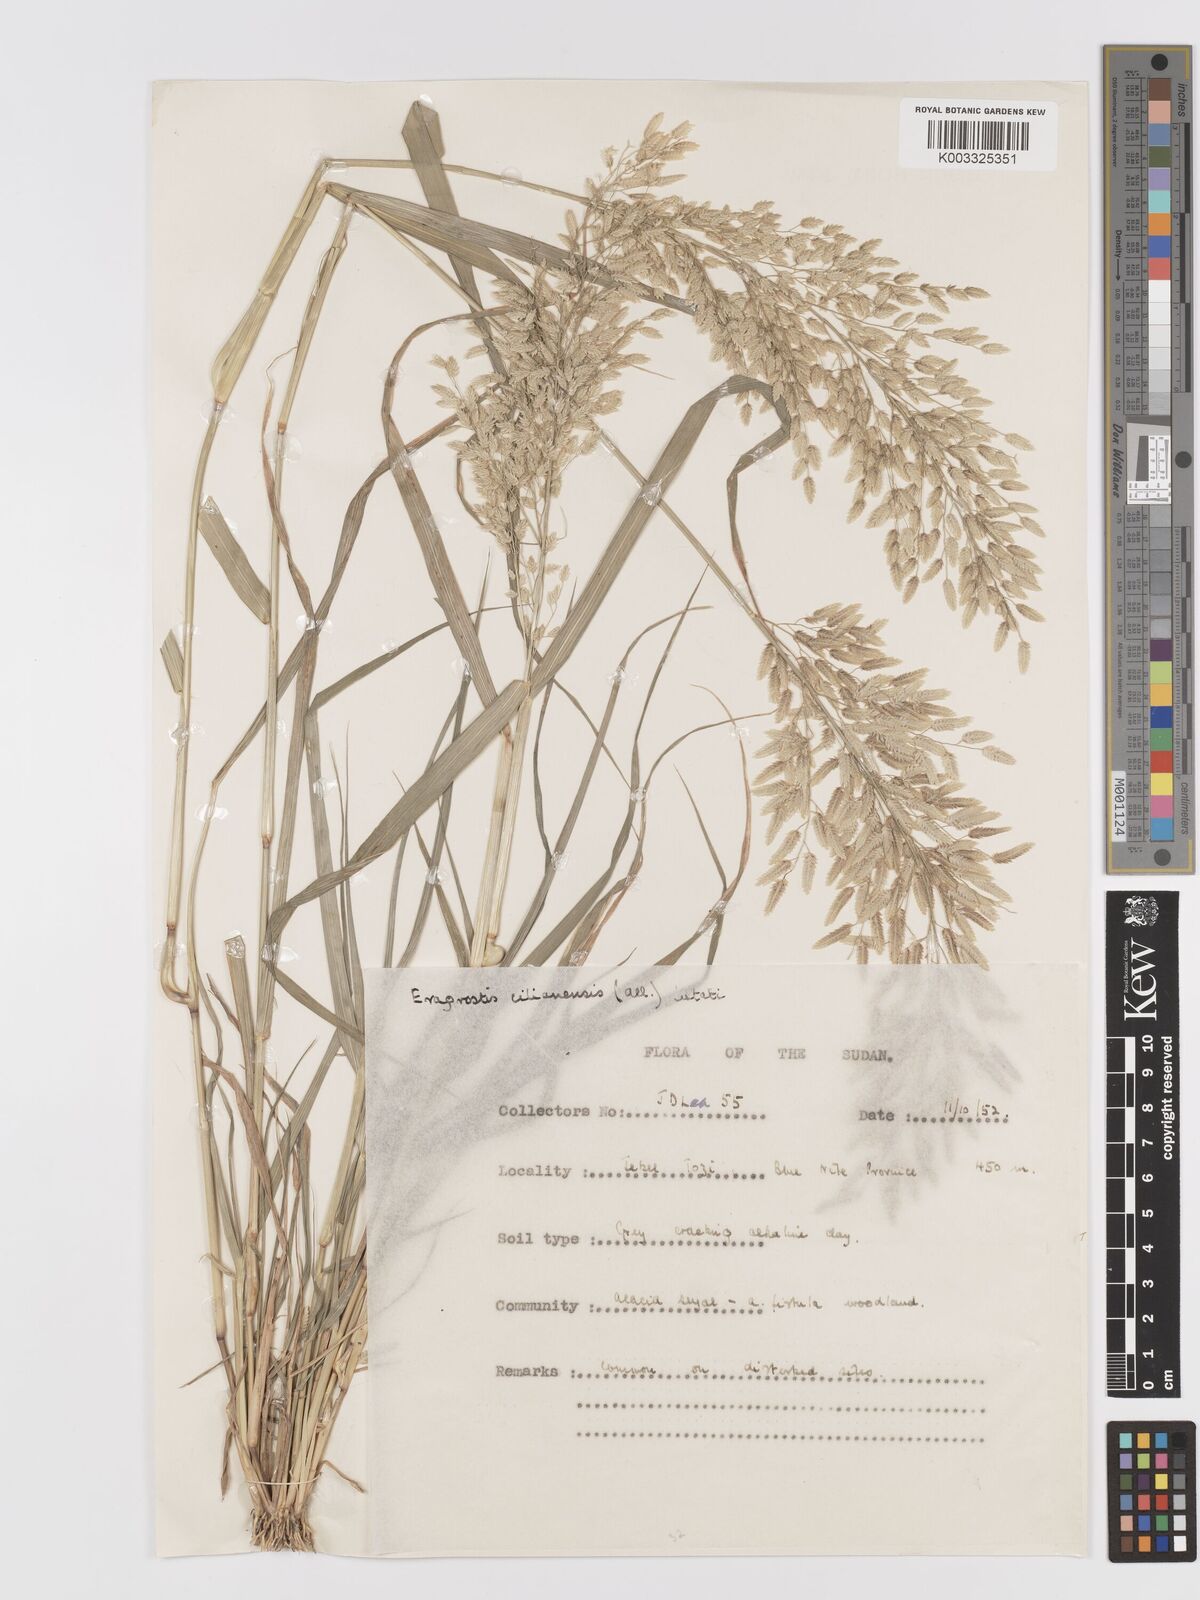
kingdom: Plantae
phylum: Tracheophyta
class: Liliopsida
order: Poales
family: Poaceae
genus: Eragrostis
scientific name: Eragrostis cilianensis
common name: Stinkgrass
